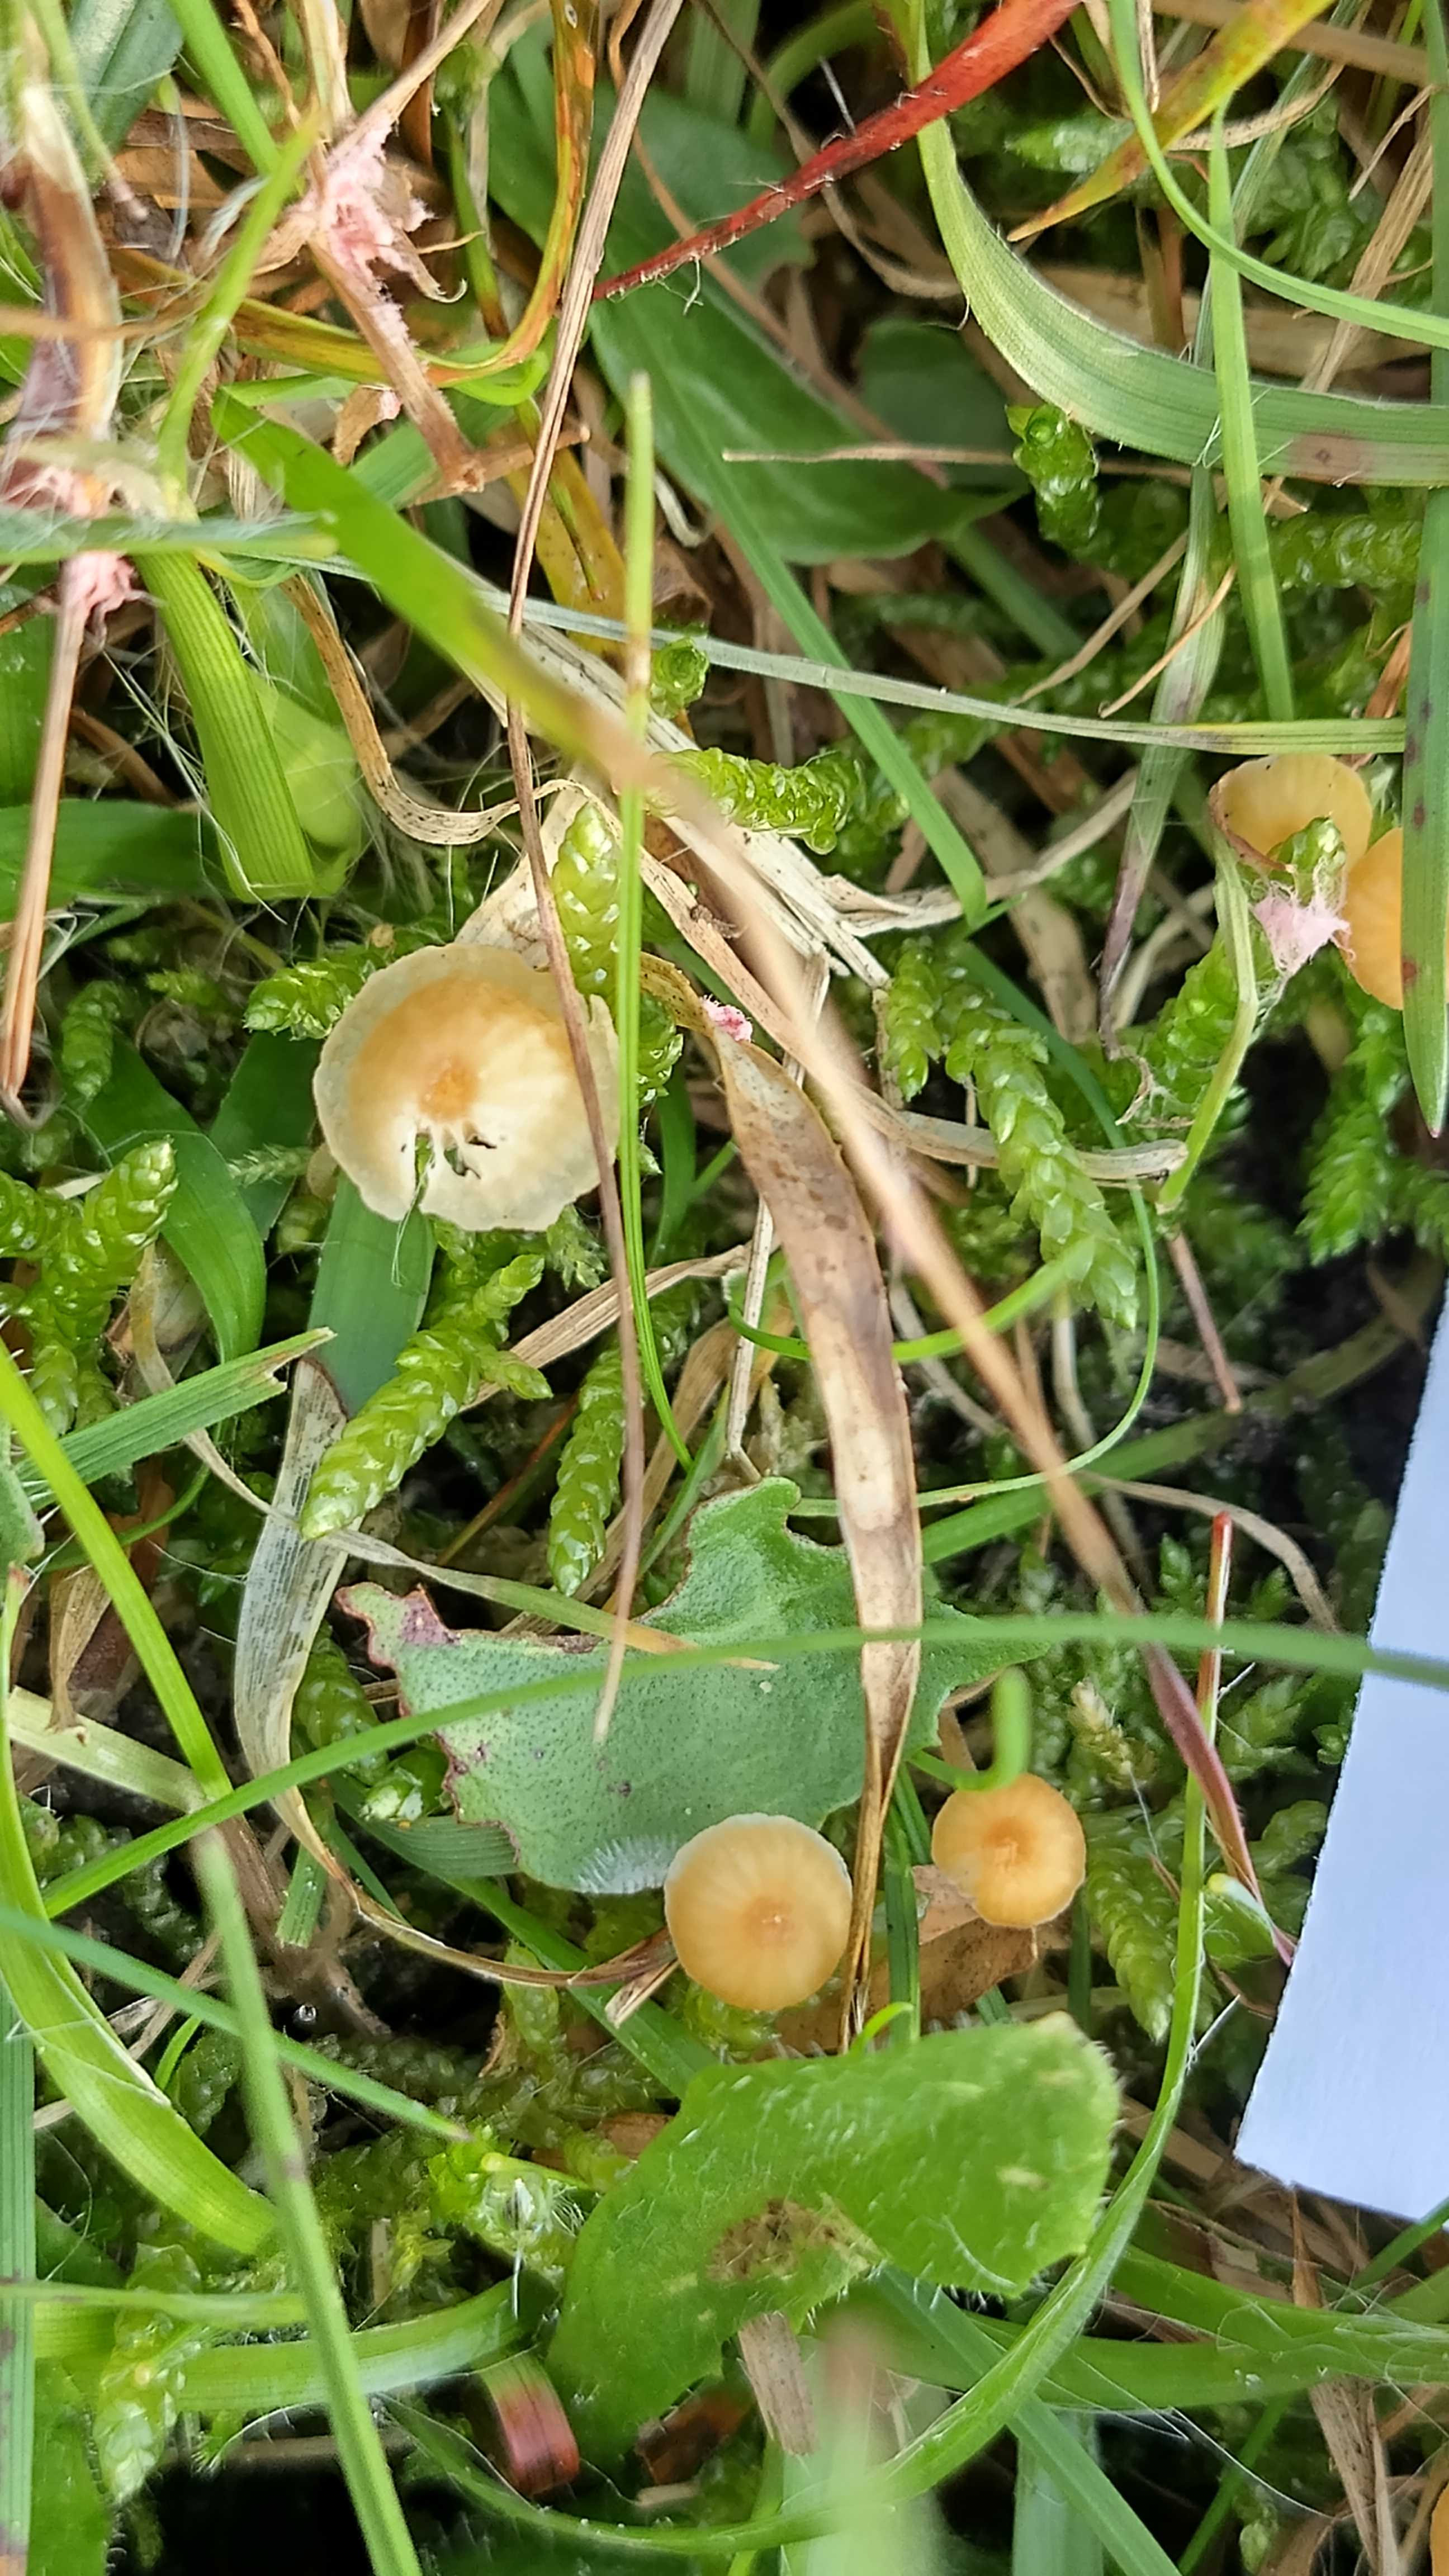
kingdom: Fungi
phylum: Basidiomycota
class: Agaricomycetes
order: Hymenochaetales
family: Rickenellaceae
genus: Rickenella
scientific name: Rickenella fibula
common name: orange mosnavlehat
